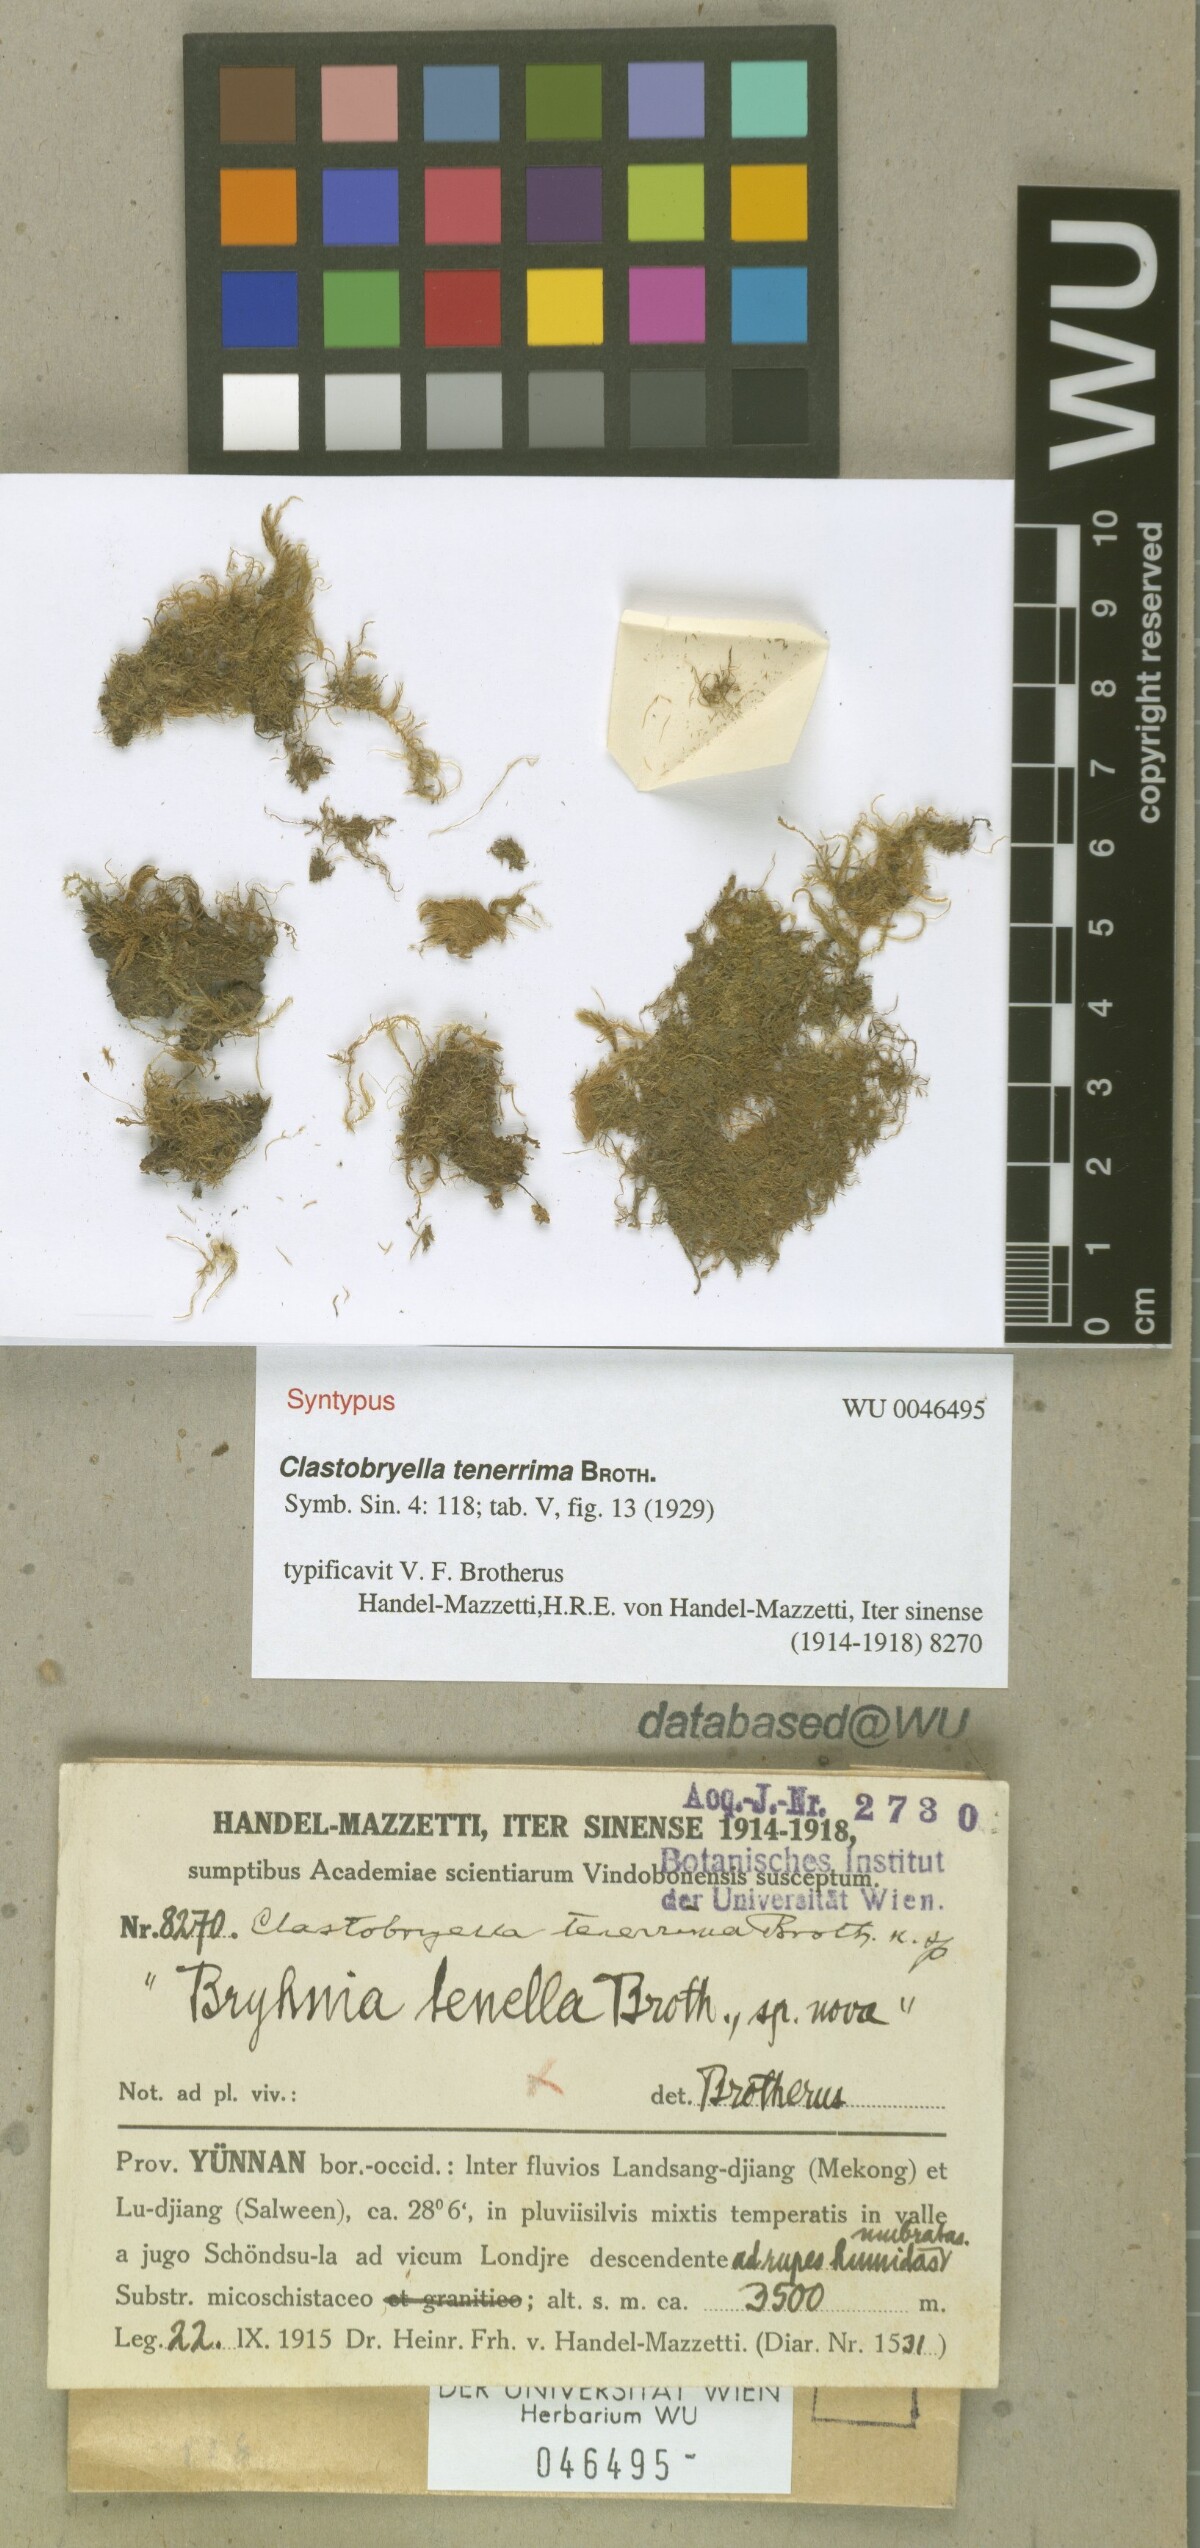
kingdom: Plantae
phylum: Bryophyta
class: Bryopsida
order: Hypnales
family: Pylaisiadelphaceae
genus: Clastobryellina
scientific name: Clastobryellina ceylonensis
